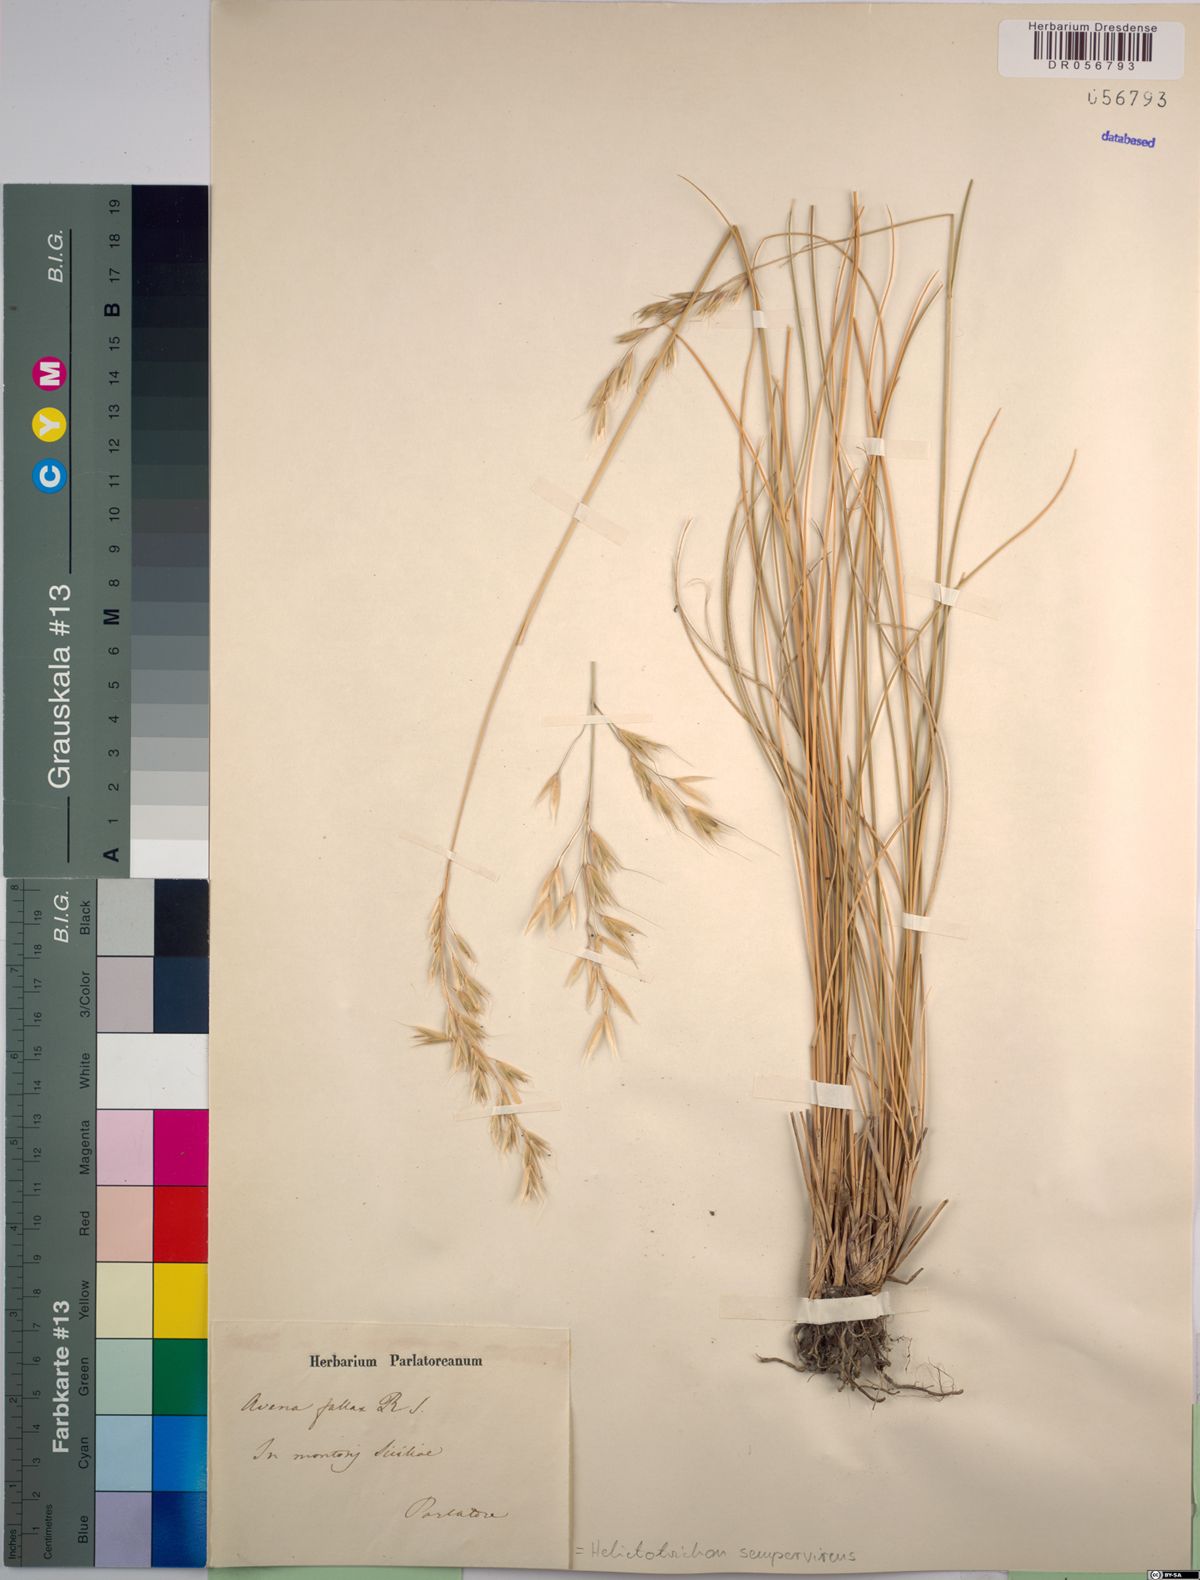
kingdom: Plantae
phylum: Tracheophyta
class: Liliopsida
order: Poales
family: Poaceae
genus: Helictotrichon
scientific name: Helictotrichon sempervirens
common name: Blue oat-grass
